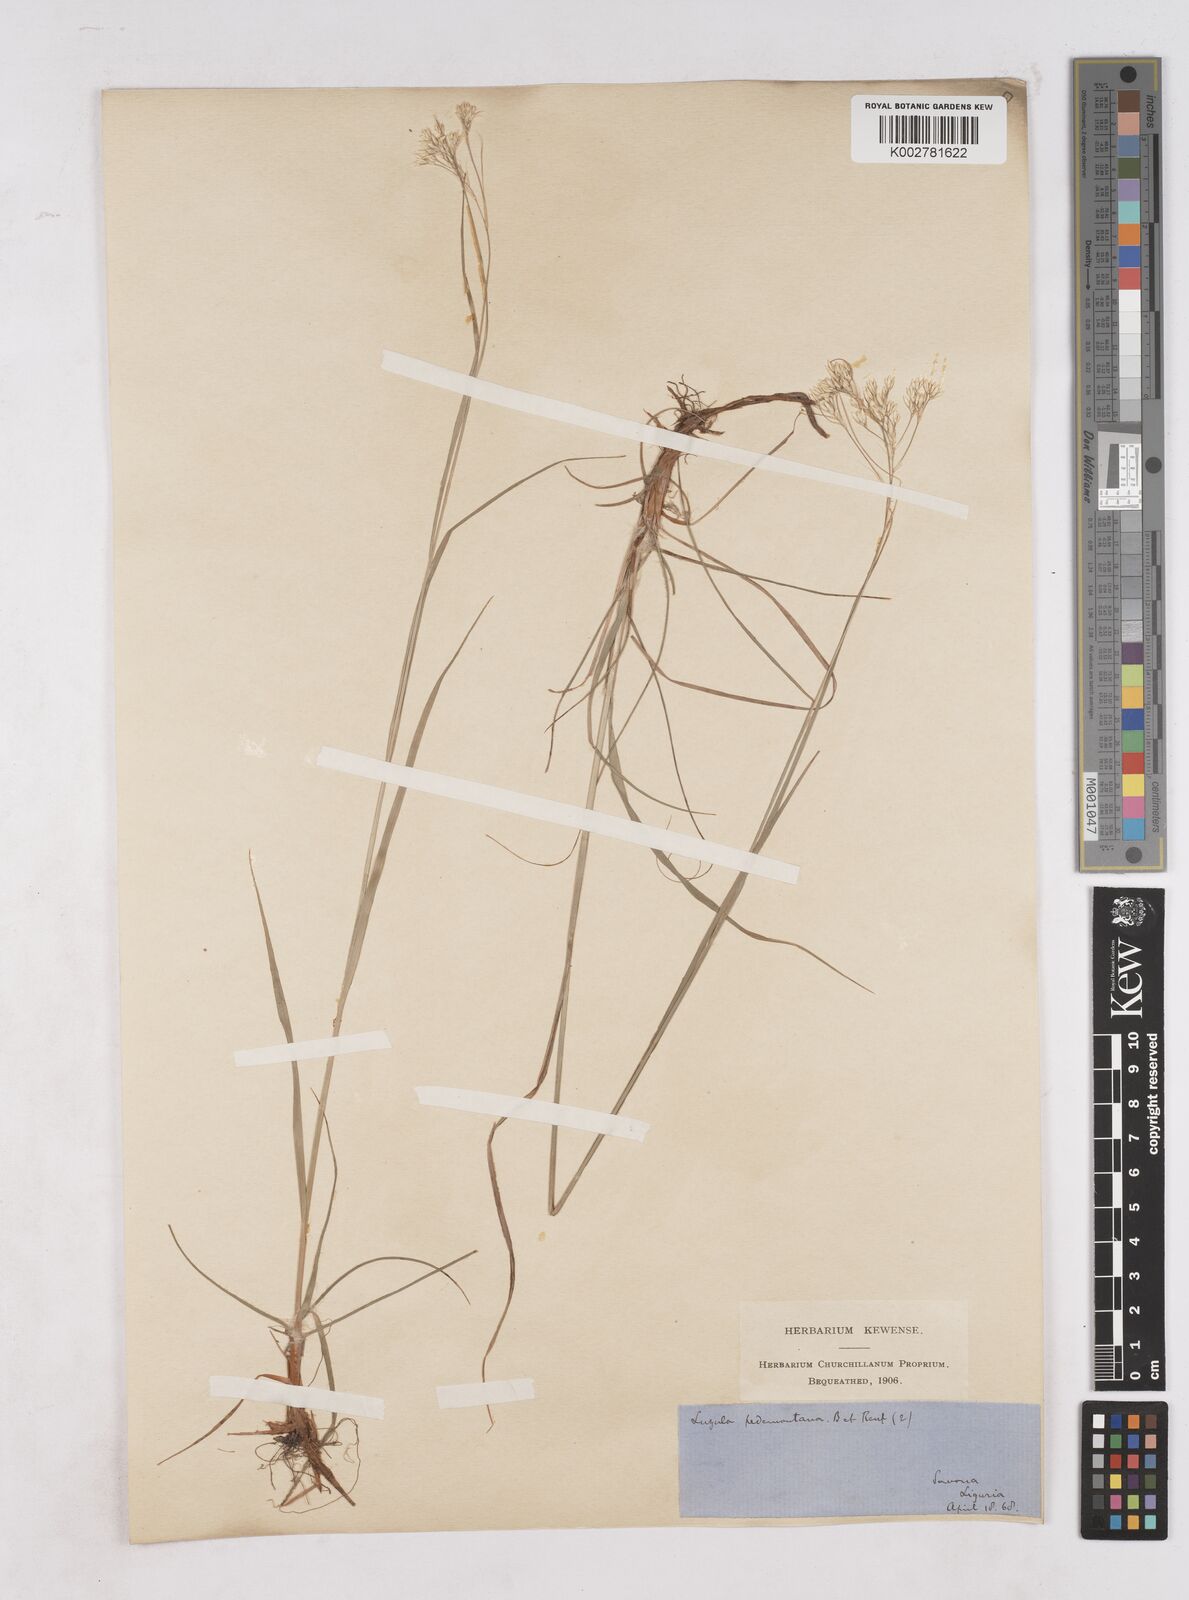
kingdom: Plantae
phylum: Tracheophyta
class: Liliopsida
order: Poales
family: Juncaceae
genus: Luzula
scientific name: Luzula pedemontana
